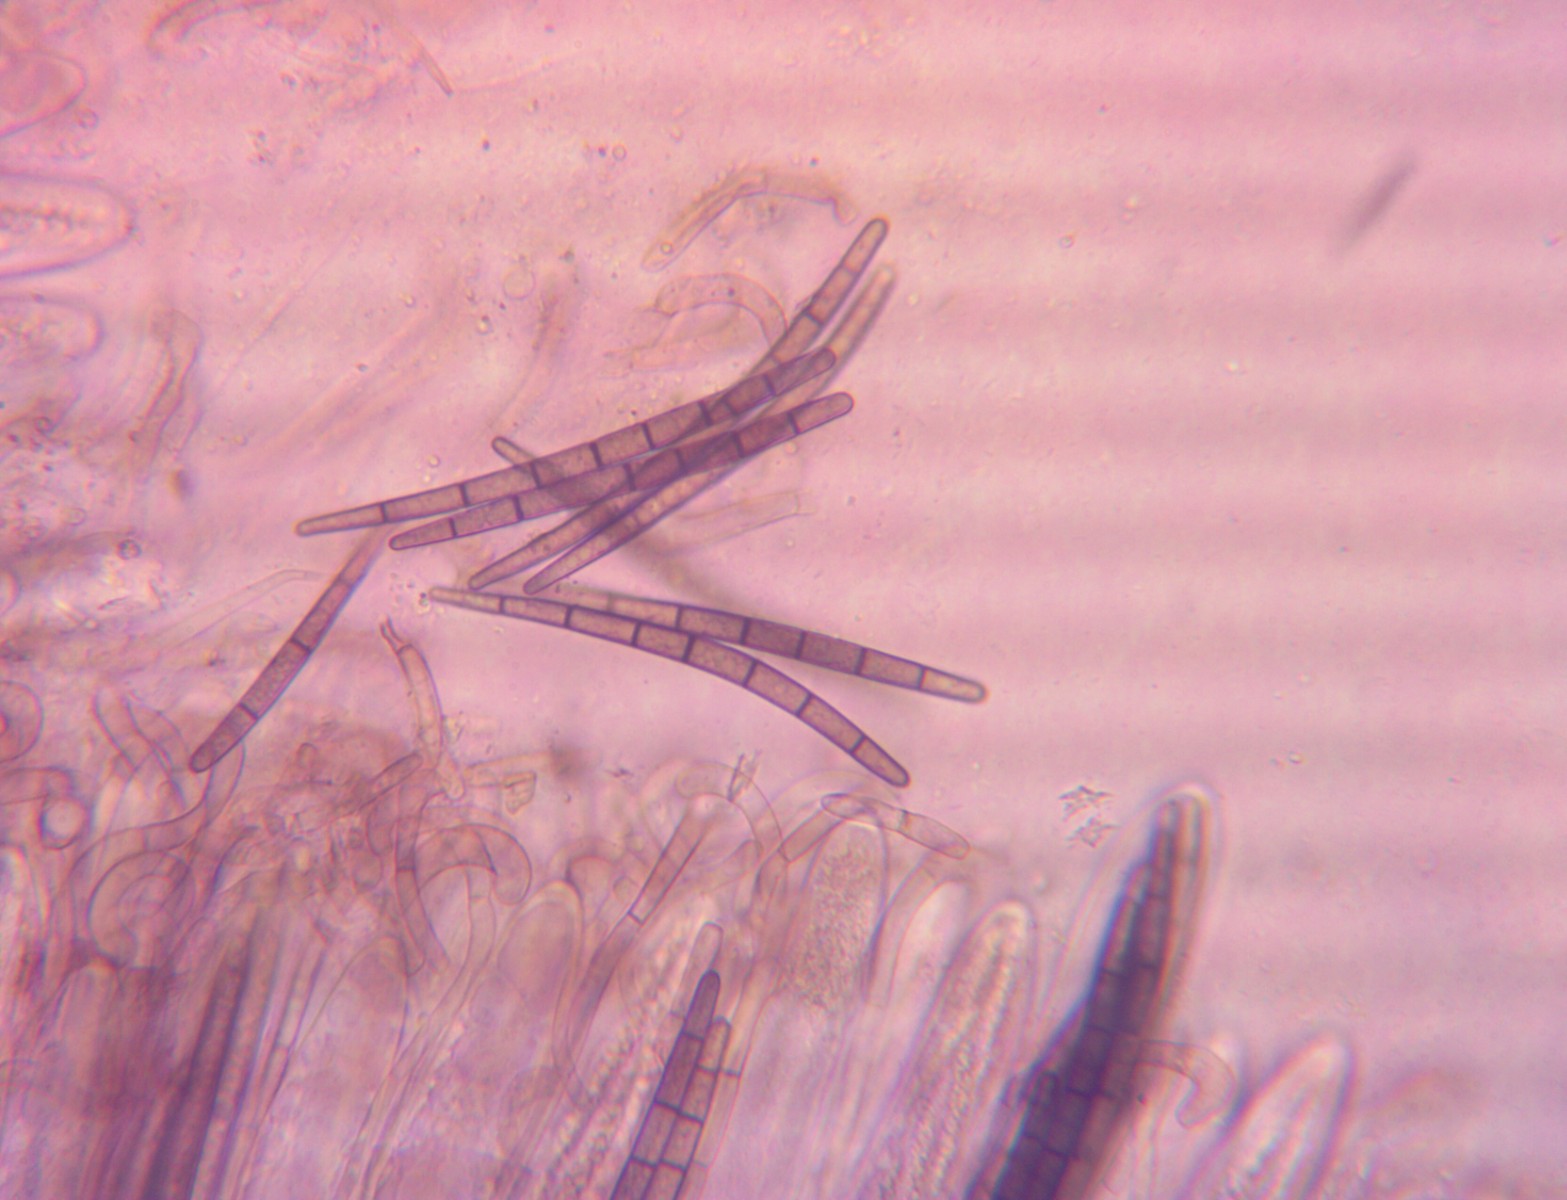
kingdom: Fungi
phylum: Ascomycota
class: Geoglossomycetes
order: Geoglossales
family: Geoglossaceae
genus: Geoglossum
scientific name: Geoglossum umbratile
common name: slank jordtunge
